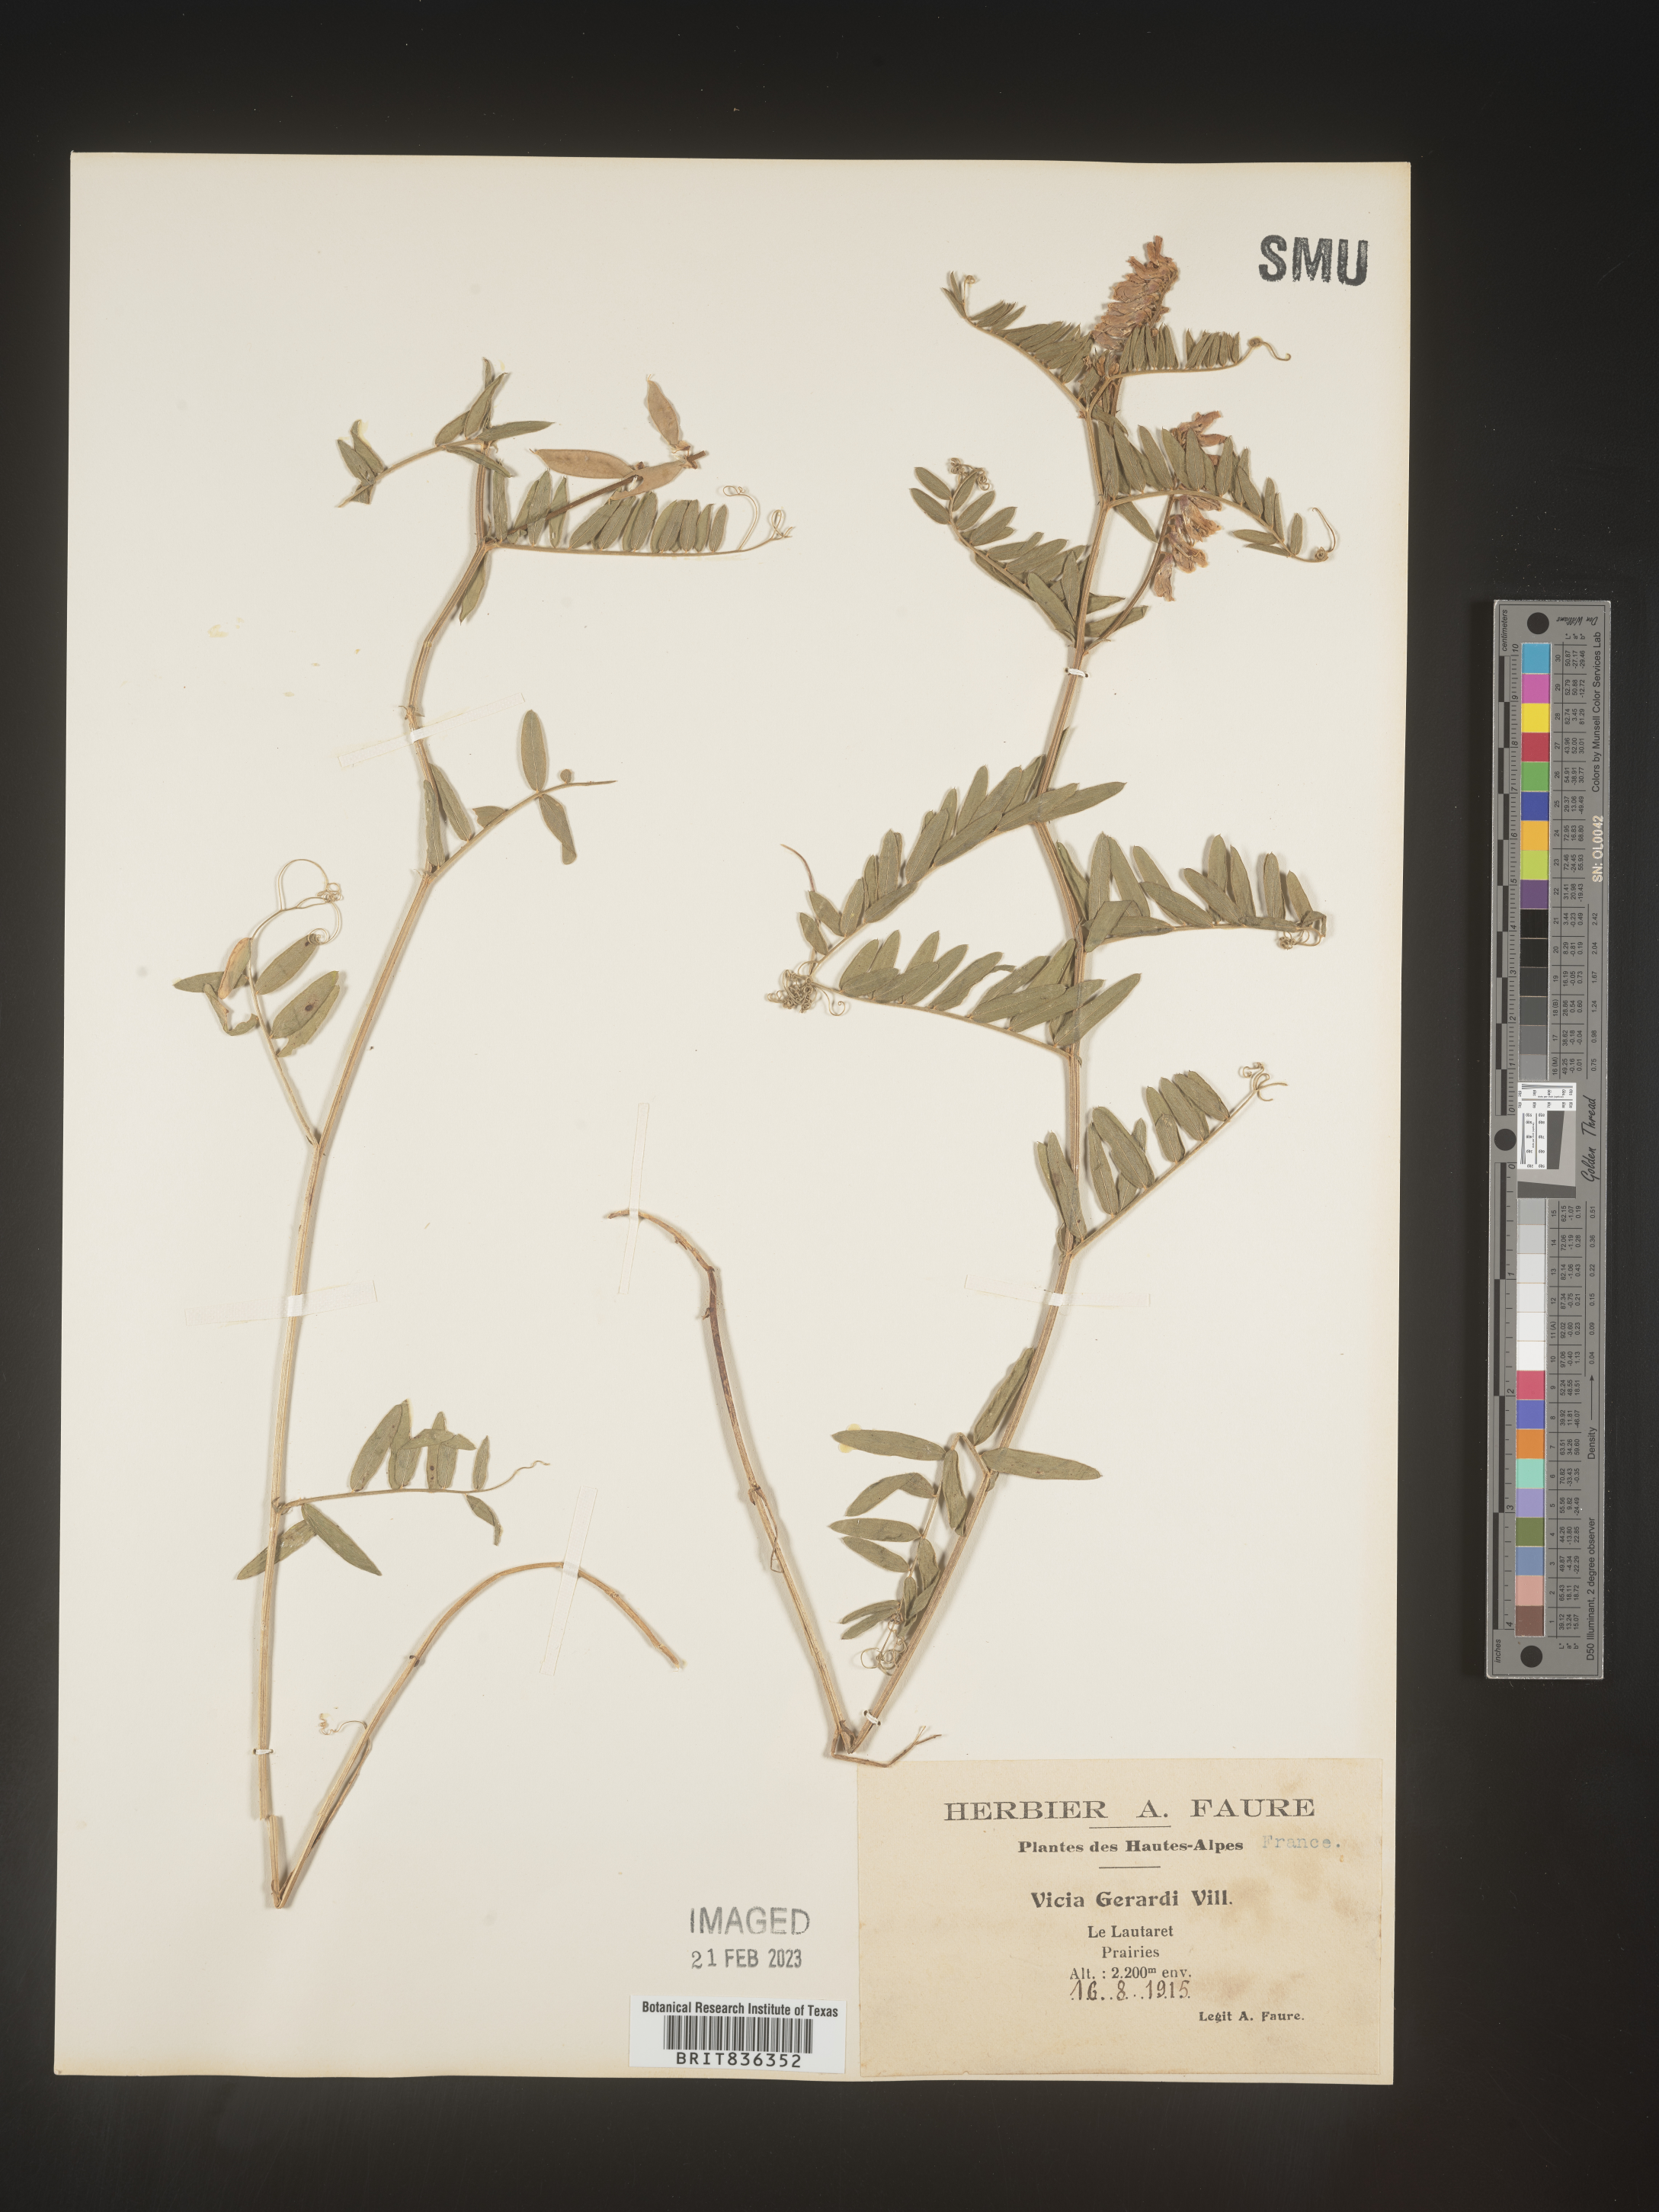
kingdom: Plantae
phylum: Tracheophyta
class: Magnoliopsida
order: Fabales
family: Fabaceae
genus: Vicia
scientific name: Vicia
